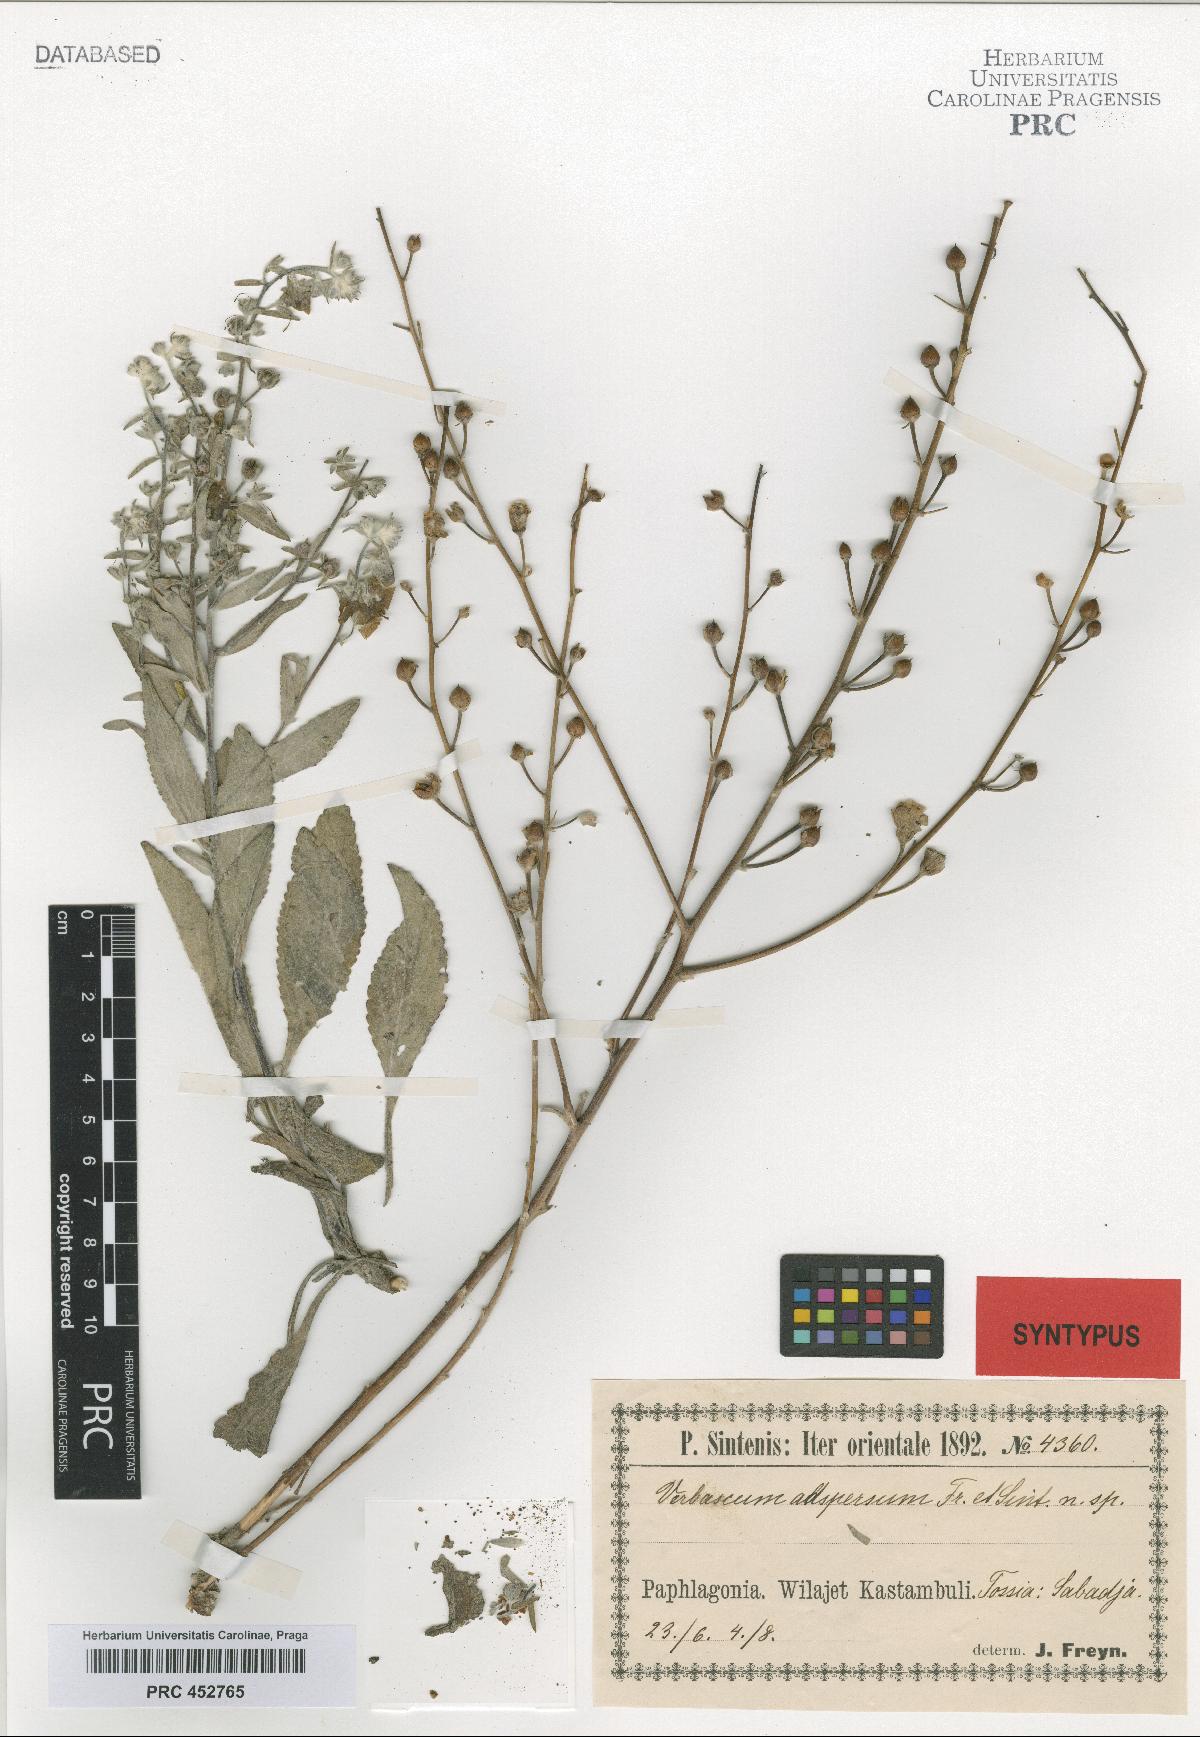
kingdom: Plantae
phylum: Tracheophyta
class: Magnoliopsida
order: Lamiales
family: Scrophulariaceae
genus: Verbascum
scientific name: Verbascum stachydifolium
